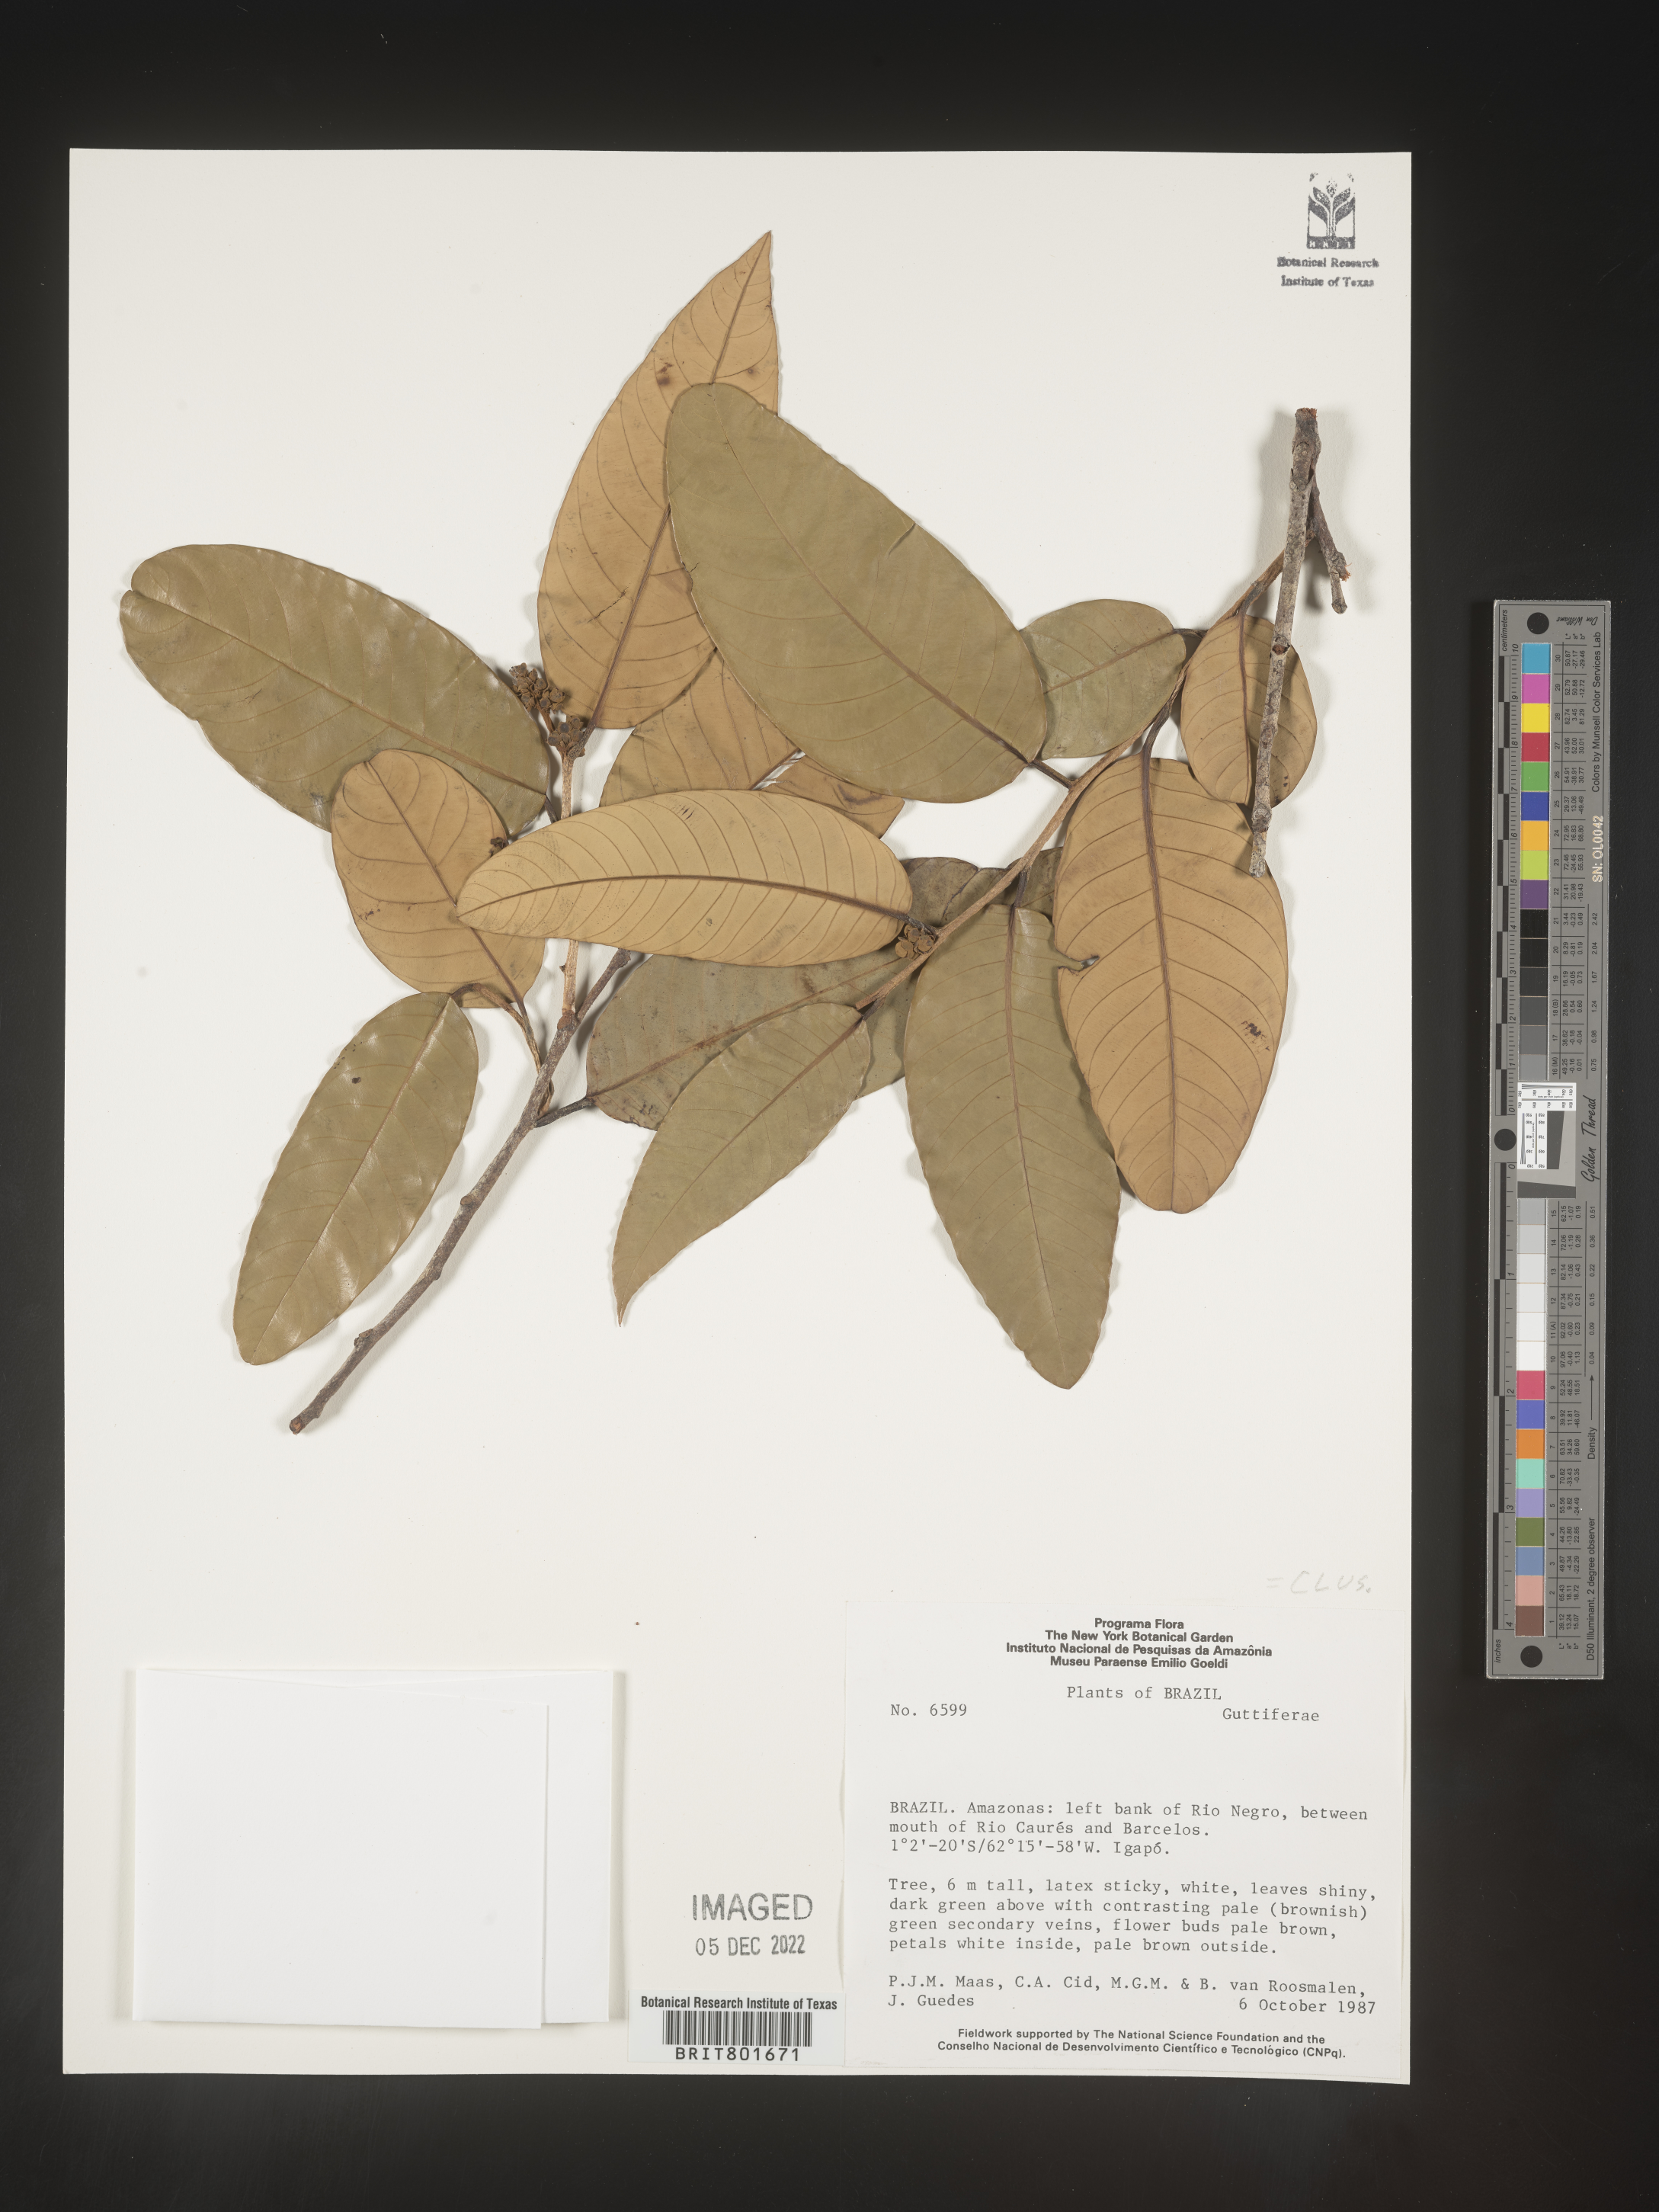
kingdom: Plantae
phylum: Tracheophyta
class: Magnoliopsida
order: Malpighiales
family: Clusiaceae
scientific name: Clusiaceae
